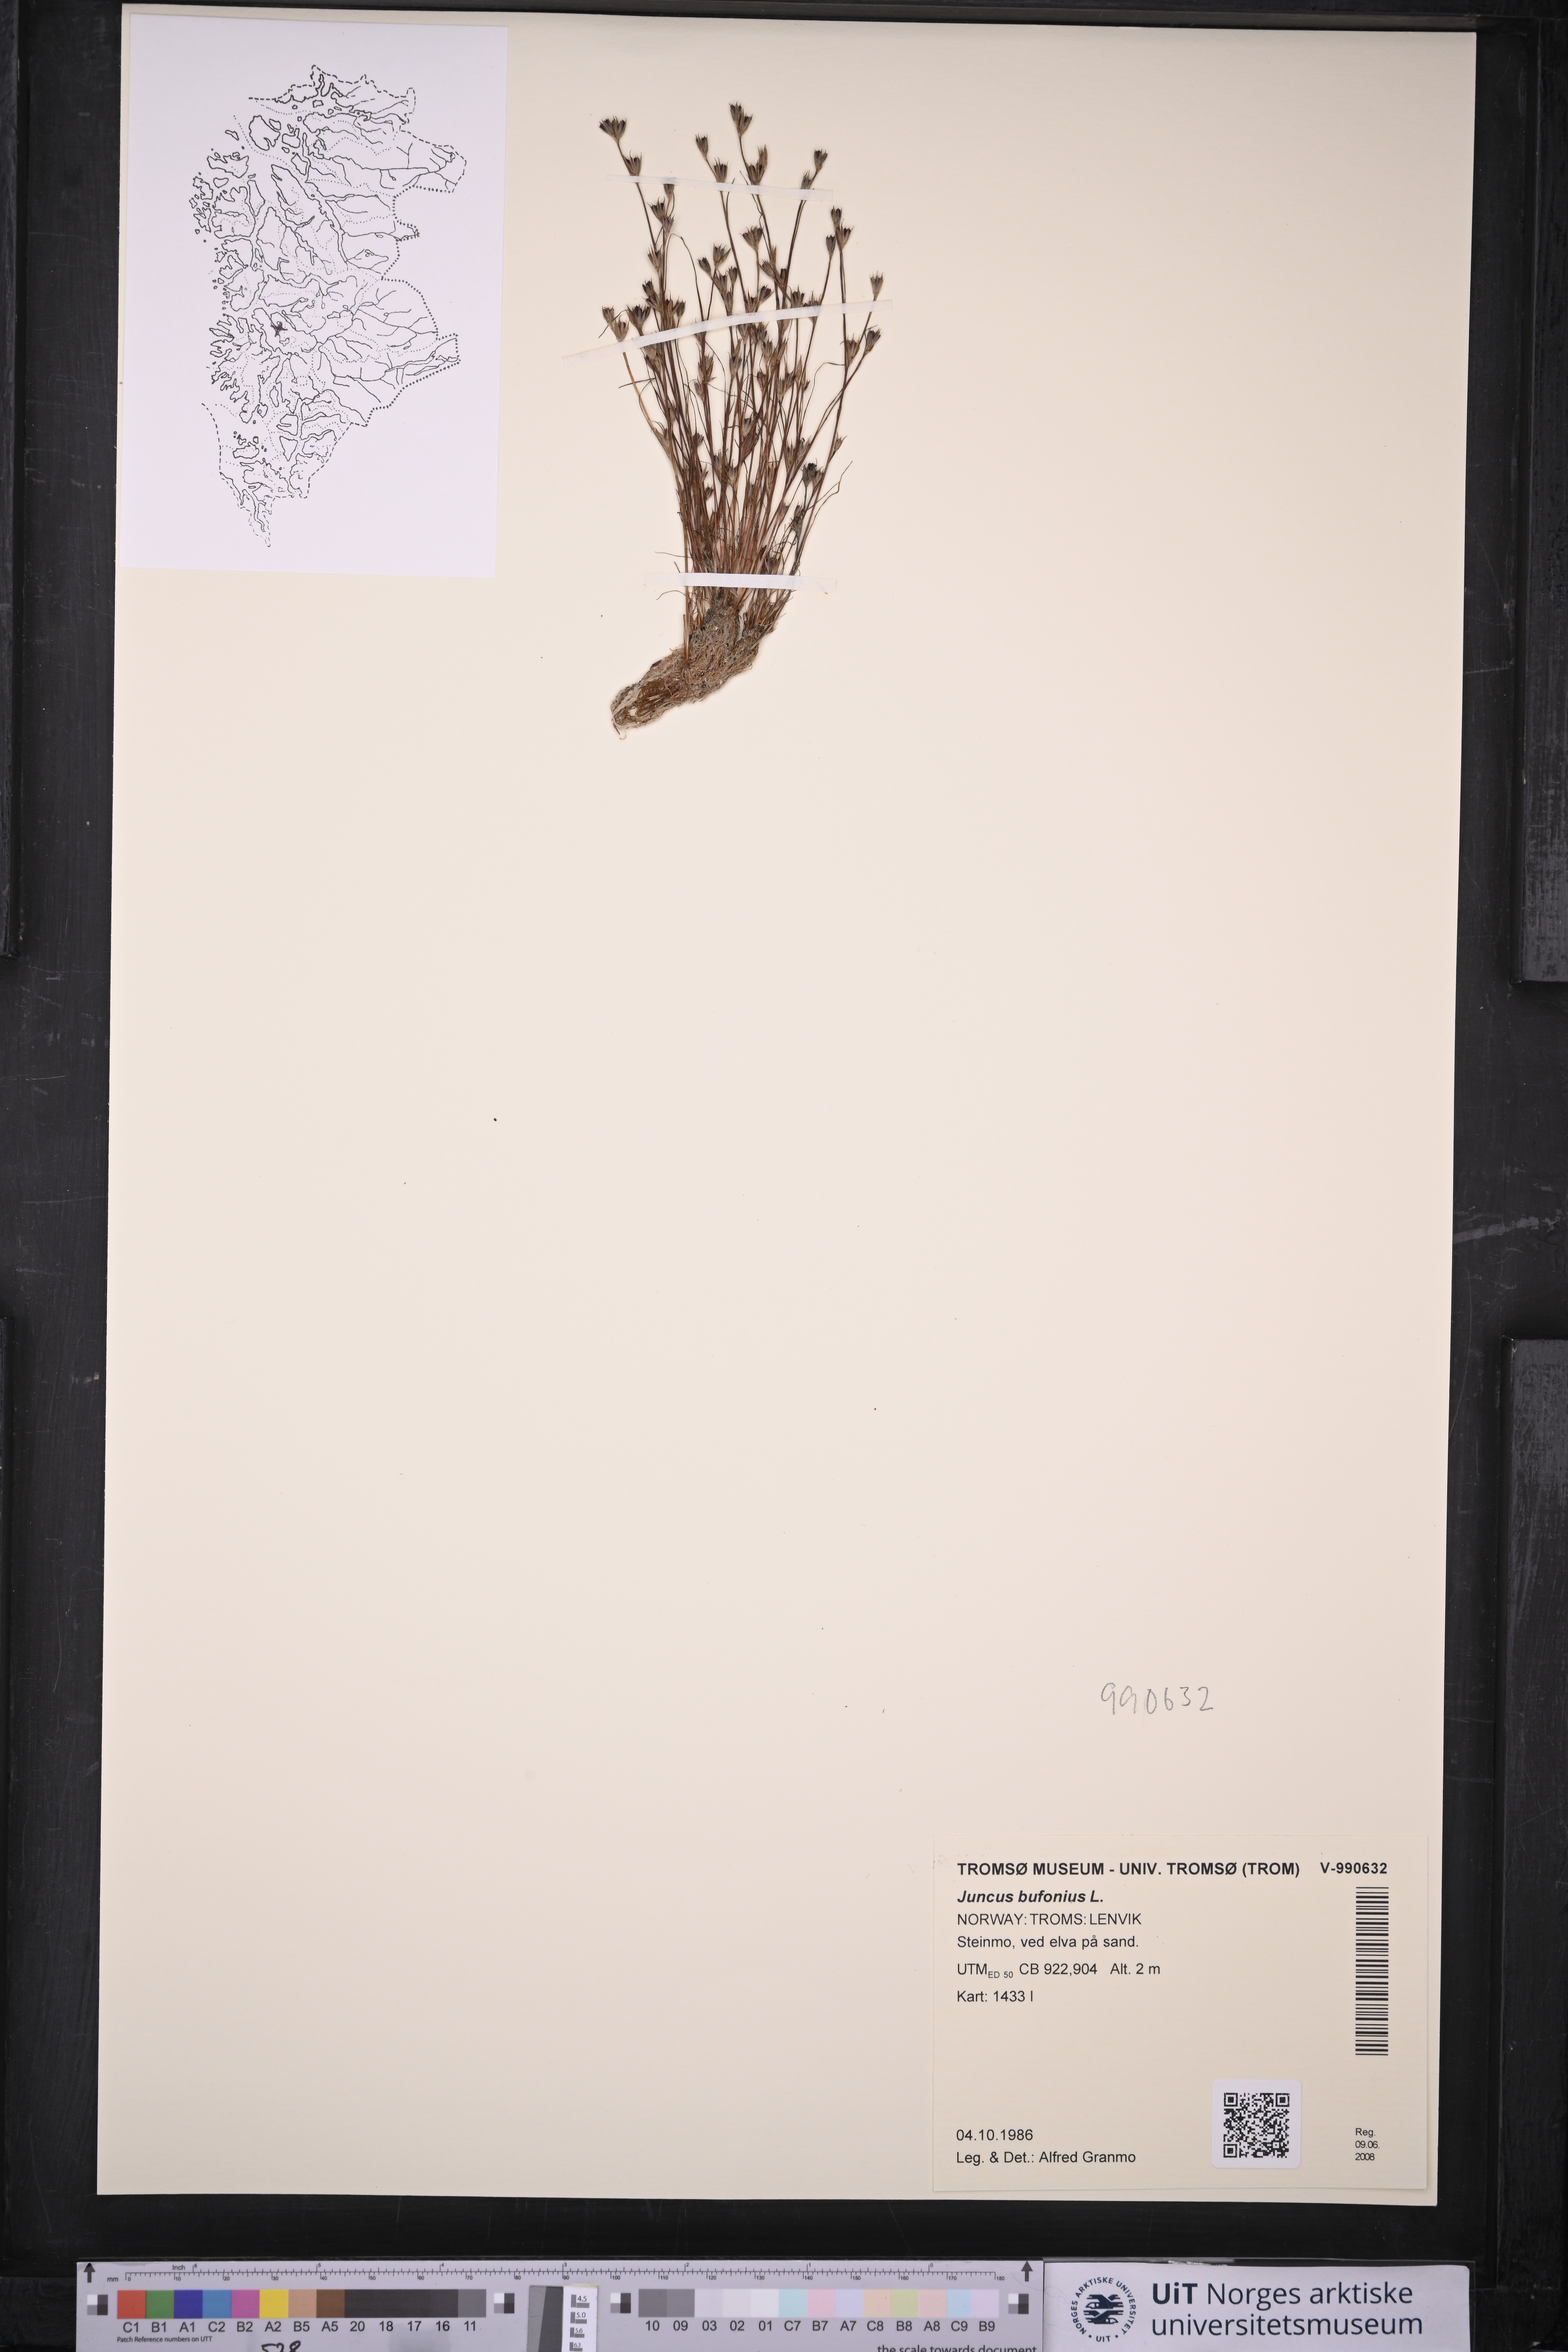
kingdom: Plantae
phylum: Tracheophyta
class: Liliopsida
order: Poales
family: Juncaceae
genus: Juncus
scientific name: Juncus bufonius
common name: Toad rush
